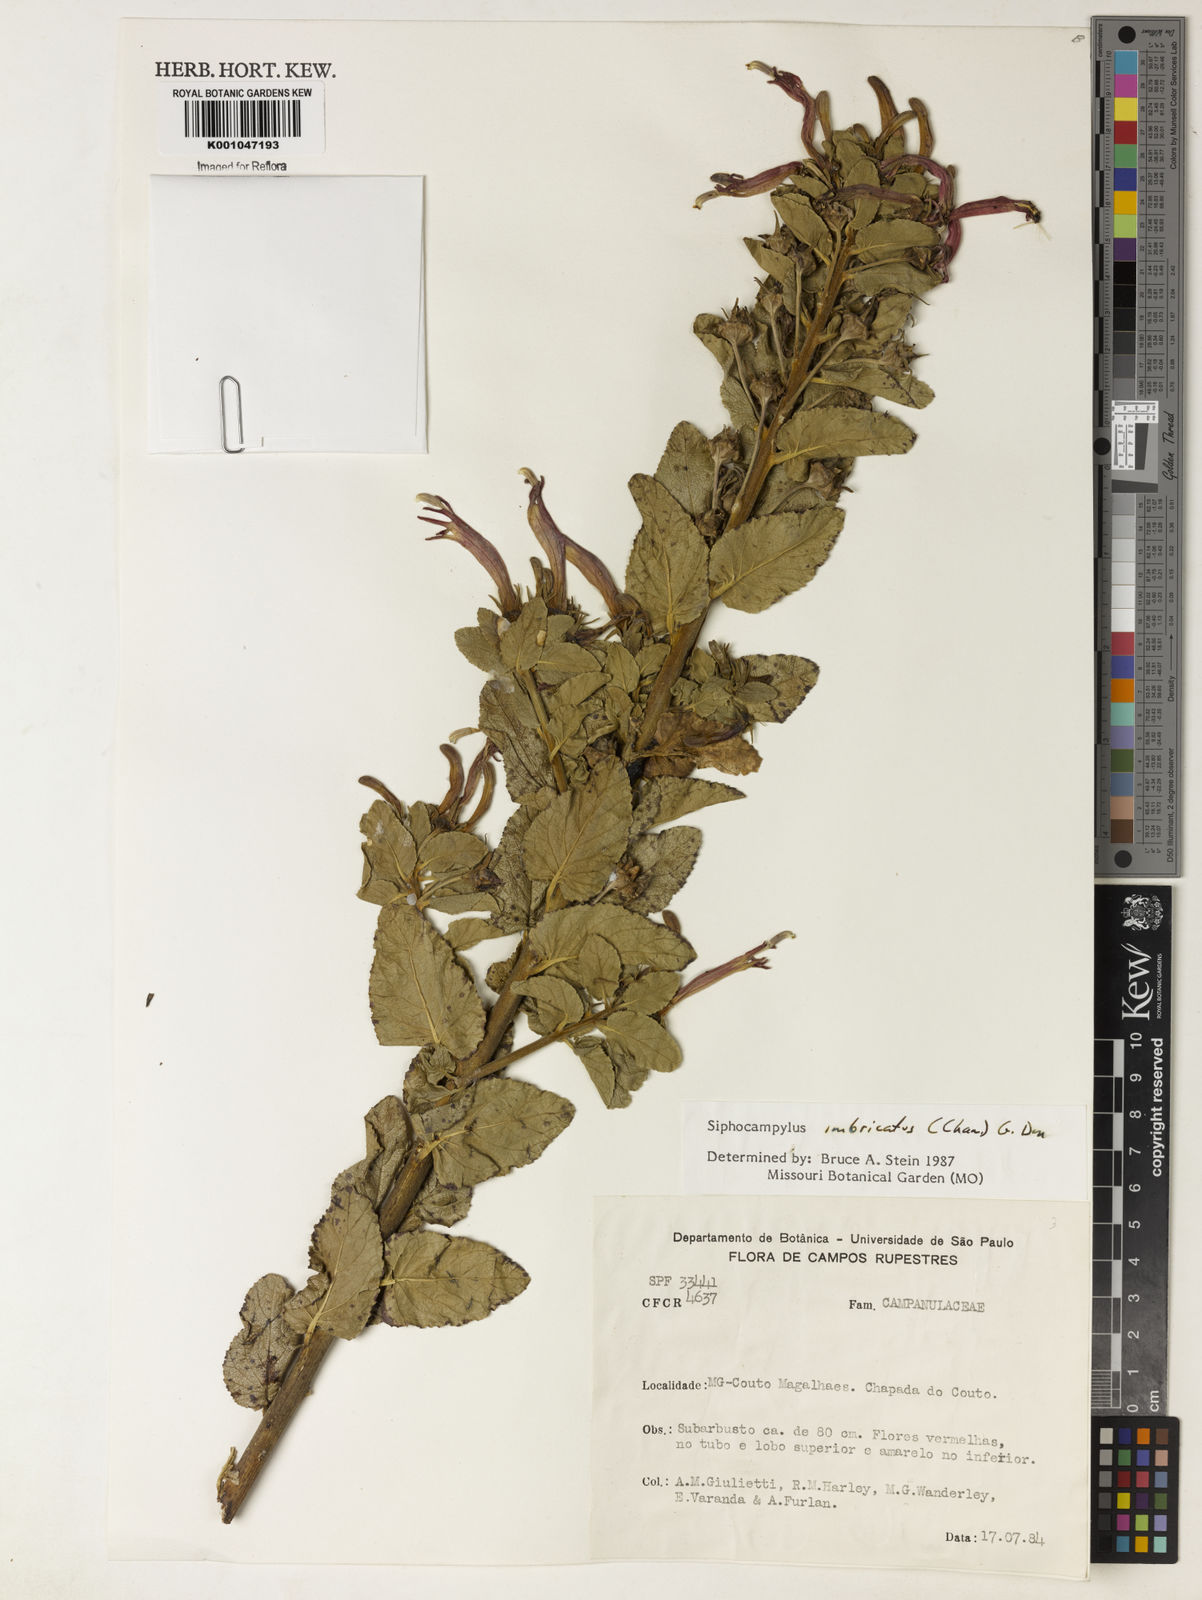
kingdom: Plantae
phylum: Tracheophyta
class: Magnoliopsida
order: Asterales
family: Campanulaceae
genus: Siphocampylus
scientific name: Siphocampylus imbricatus
